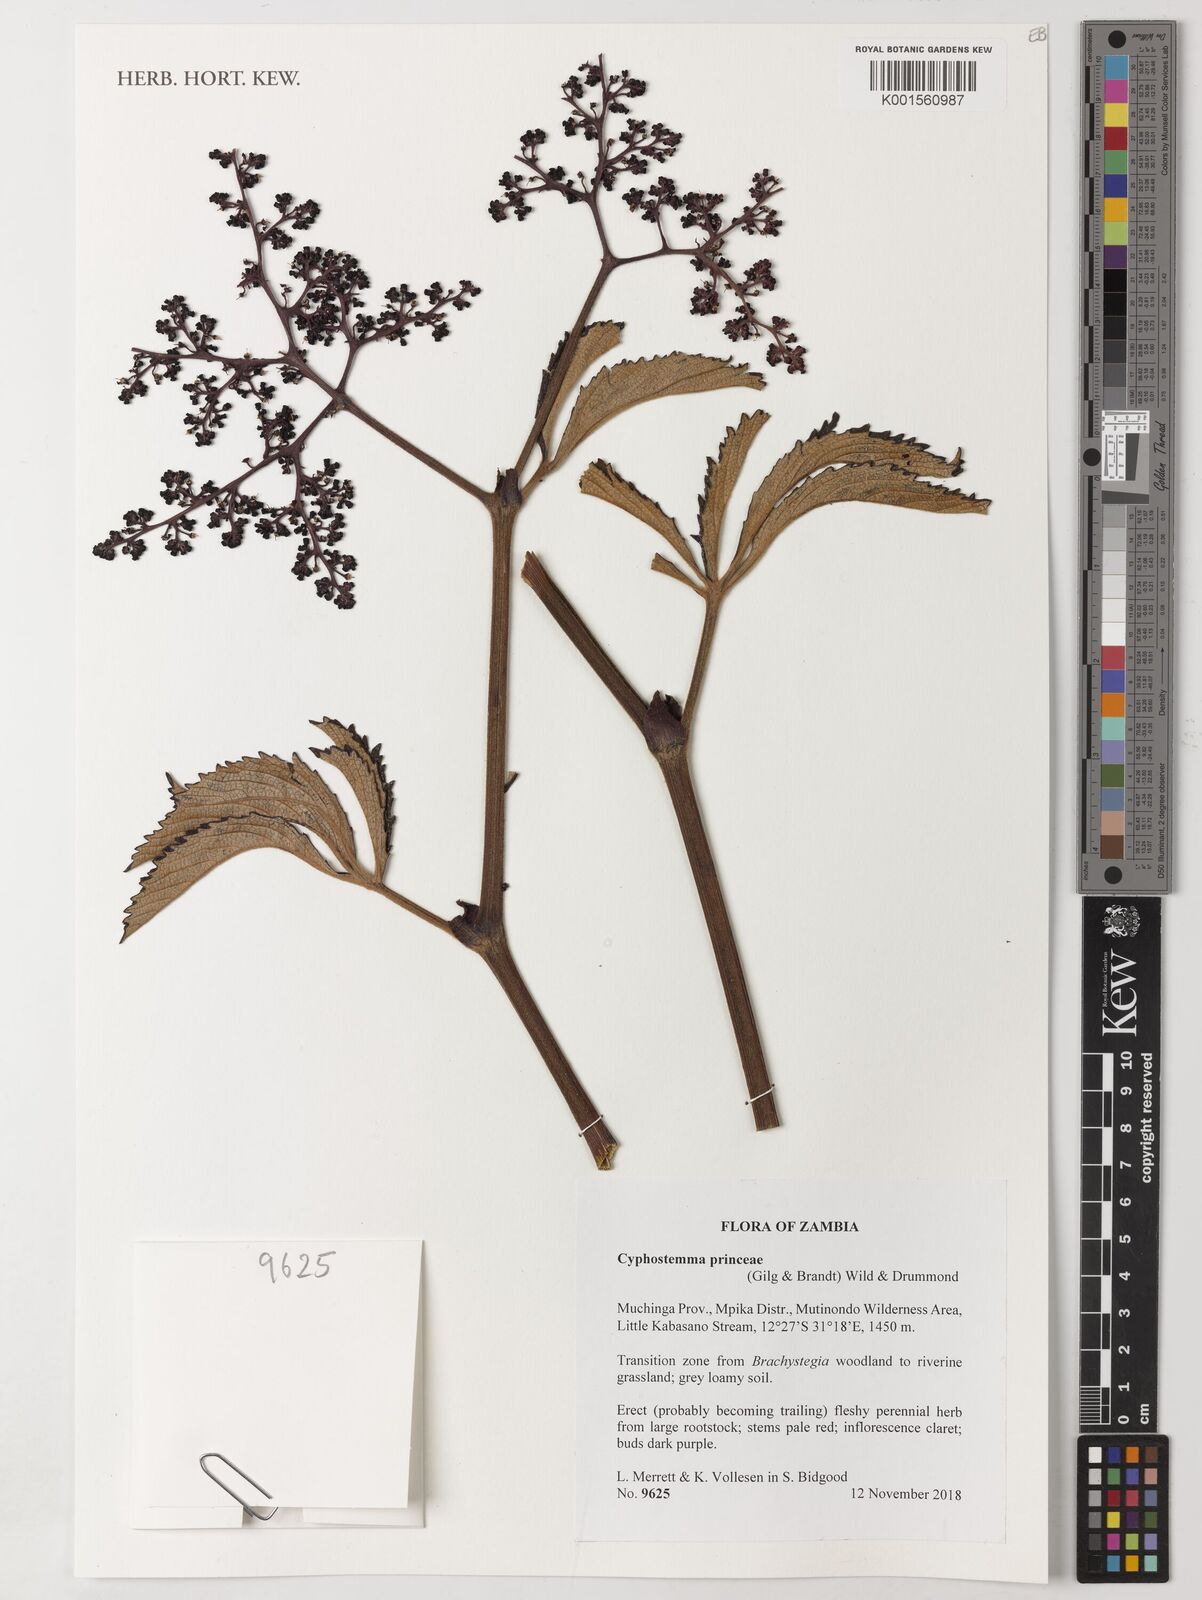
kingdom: Plantae
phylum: Tracheophyta
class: Magnoliopsida
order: Vitales
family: Vitaceae
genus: Cyphostemma
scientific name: Cyphostemma princeae
